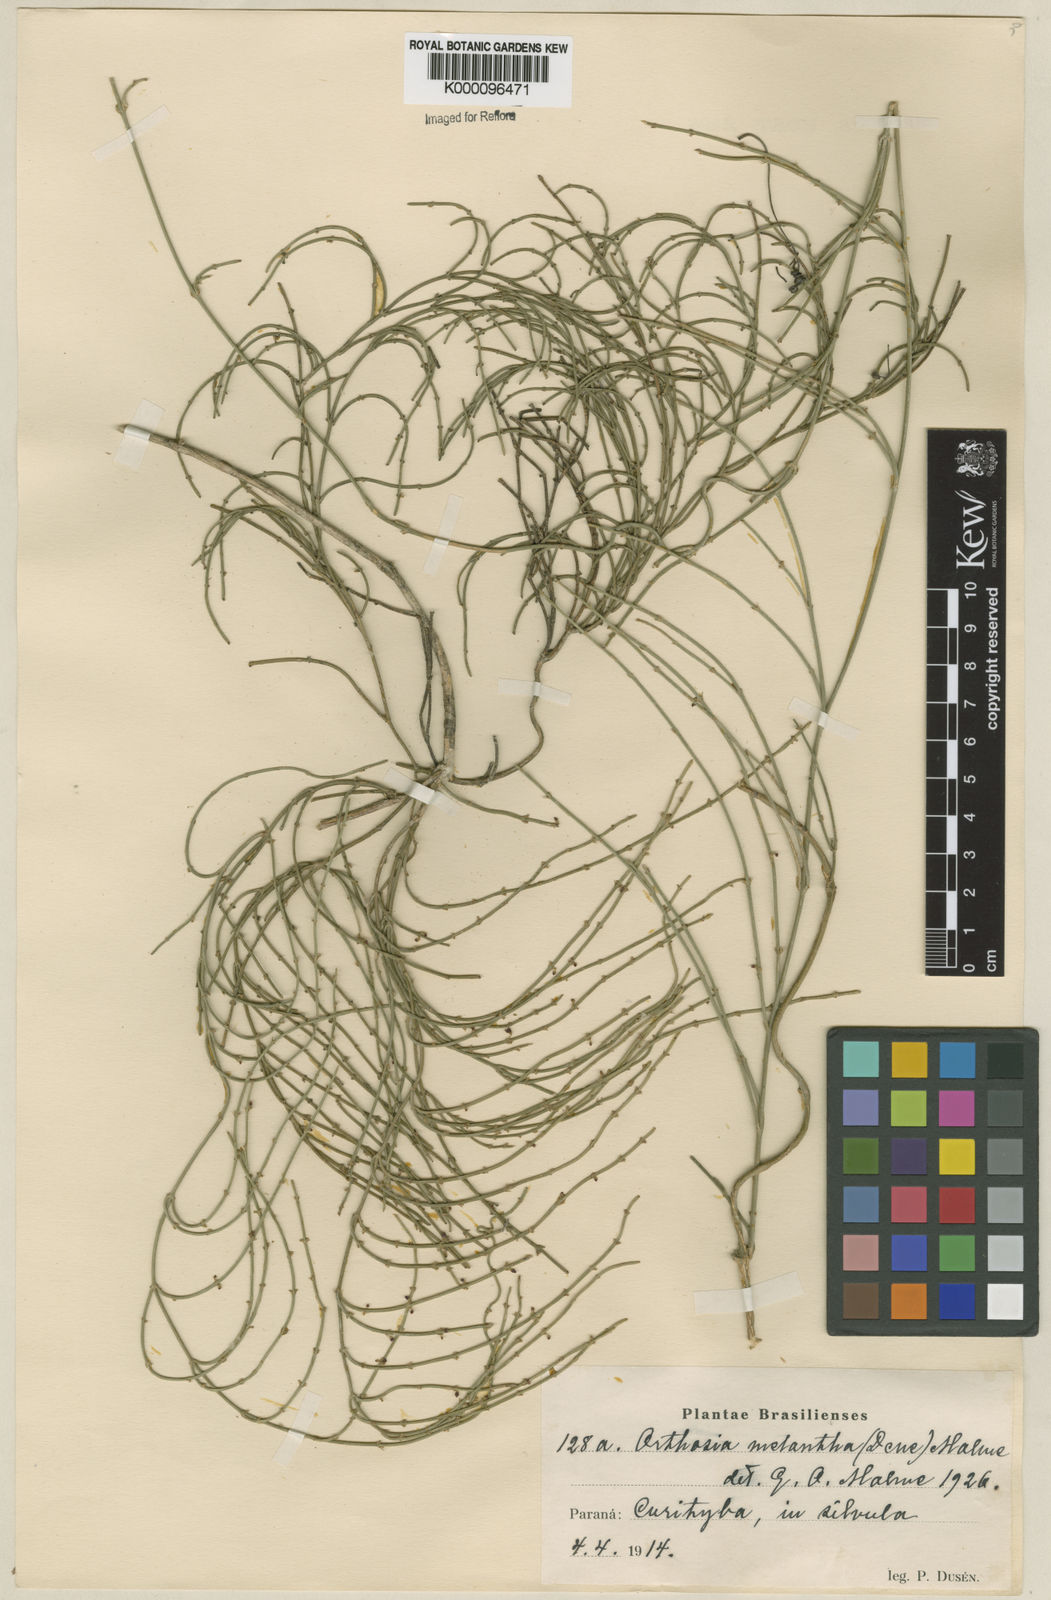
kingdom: Plantae
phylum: Tracheophyta
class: Magnoliopsida
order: Gentianales
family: Apocynaceae
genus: Orthosia
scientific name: Orthosia scoparia
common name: Leafless swallow-wort
